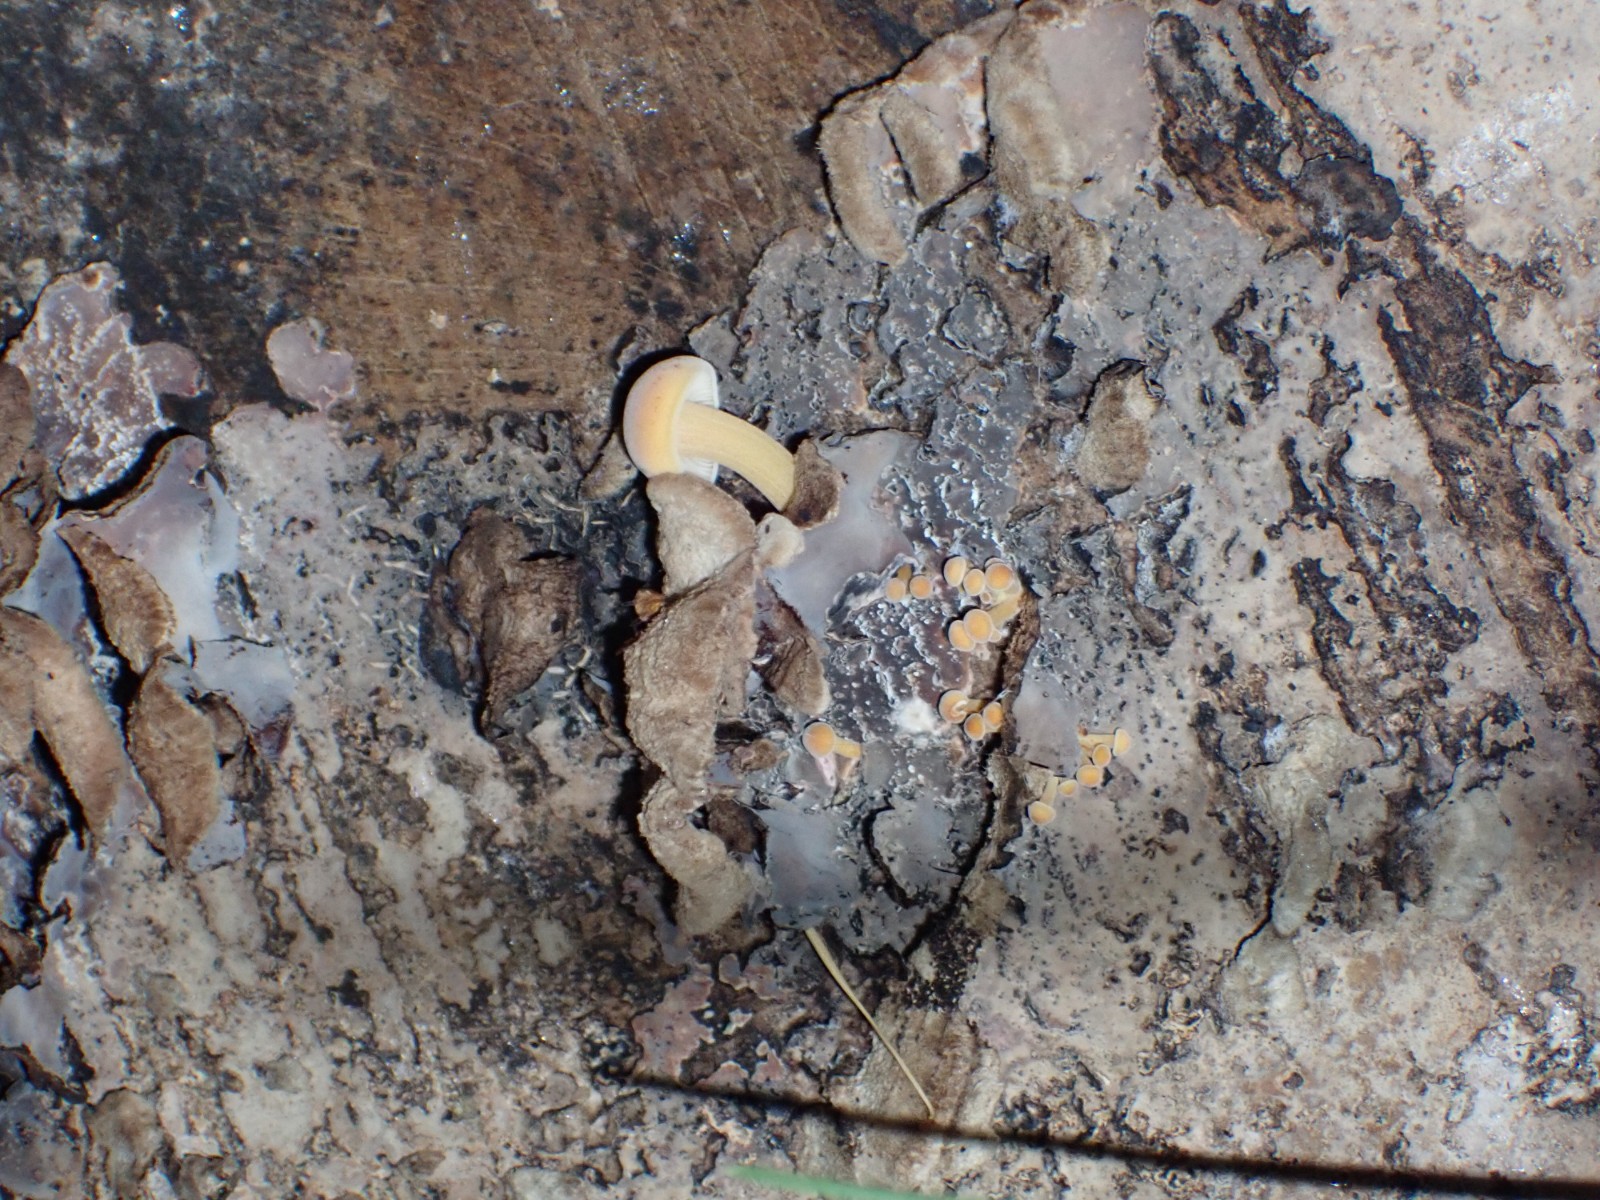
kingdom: Fungi
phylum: Basidiomycota
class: Agaricomycetes
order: Agaricales
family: Cyphellaceae
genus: Chondrostereum
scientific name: Chondrostereum purpureum
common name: purpurlædersvamp
